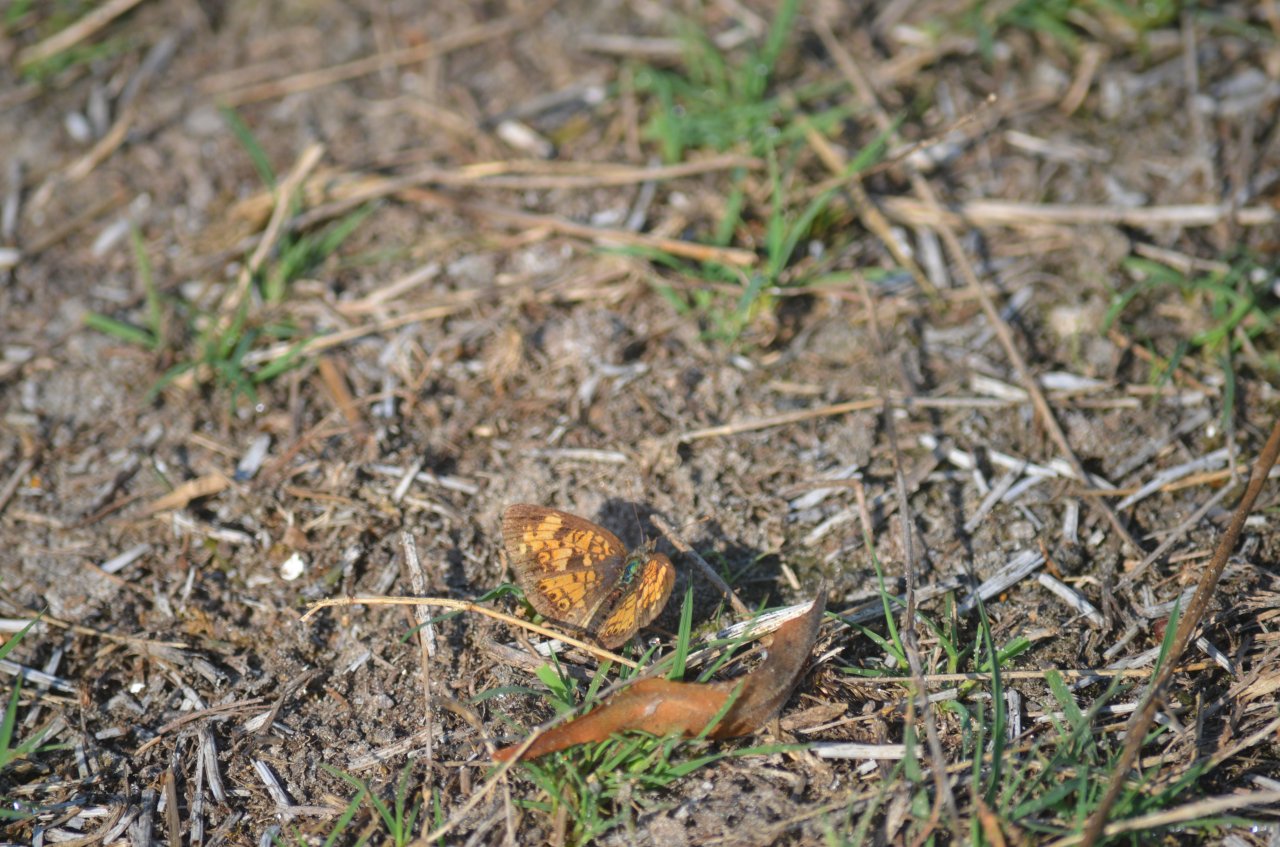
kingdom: Animalia
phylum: Arthropoda
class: Insecta
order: Lepidoptera
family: Nymphalidae
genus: Phyciodes
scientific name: Phyciodes tharos
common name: Northern Crescent
